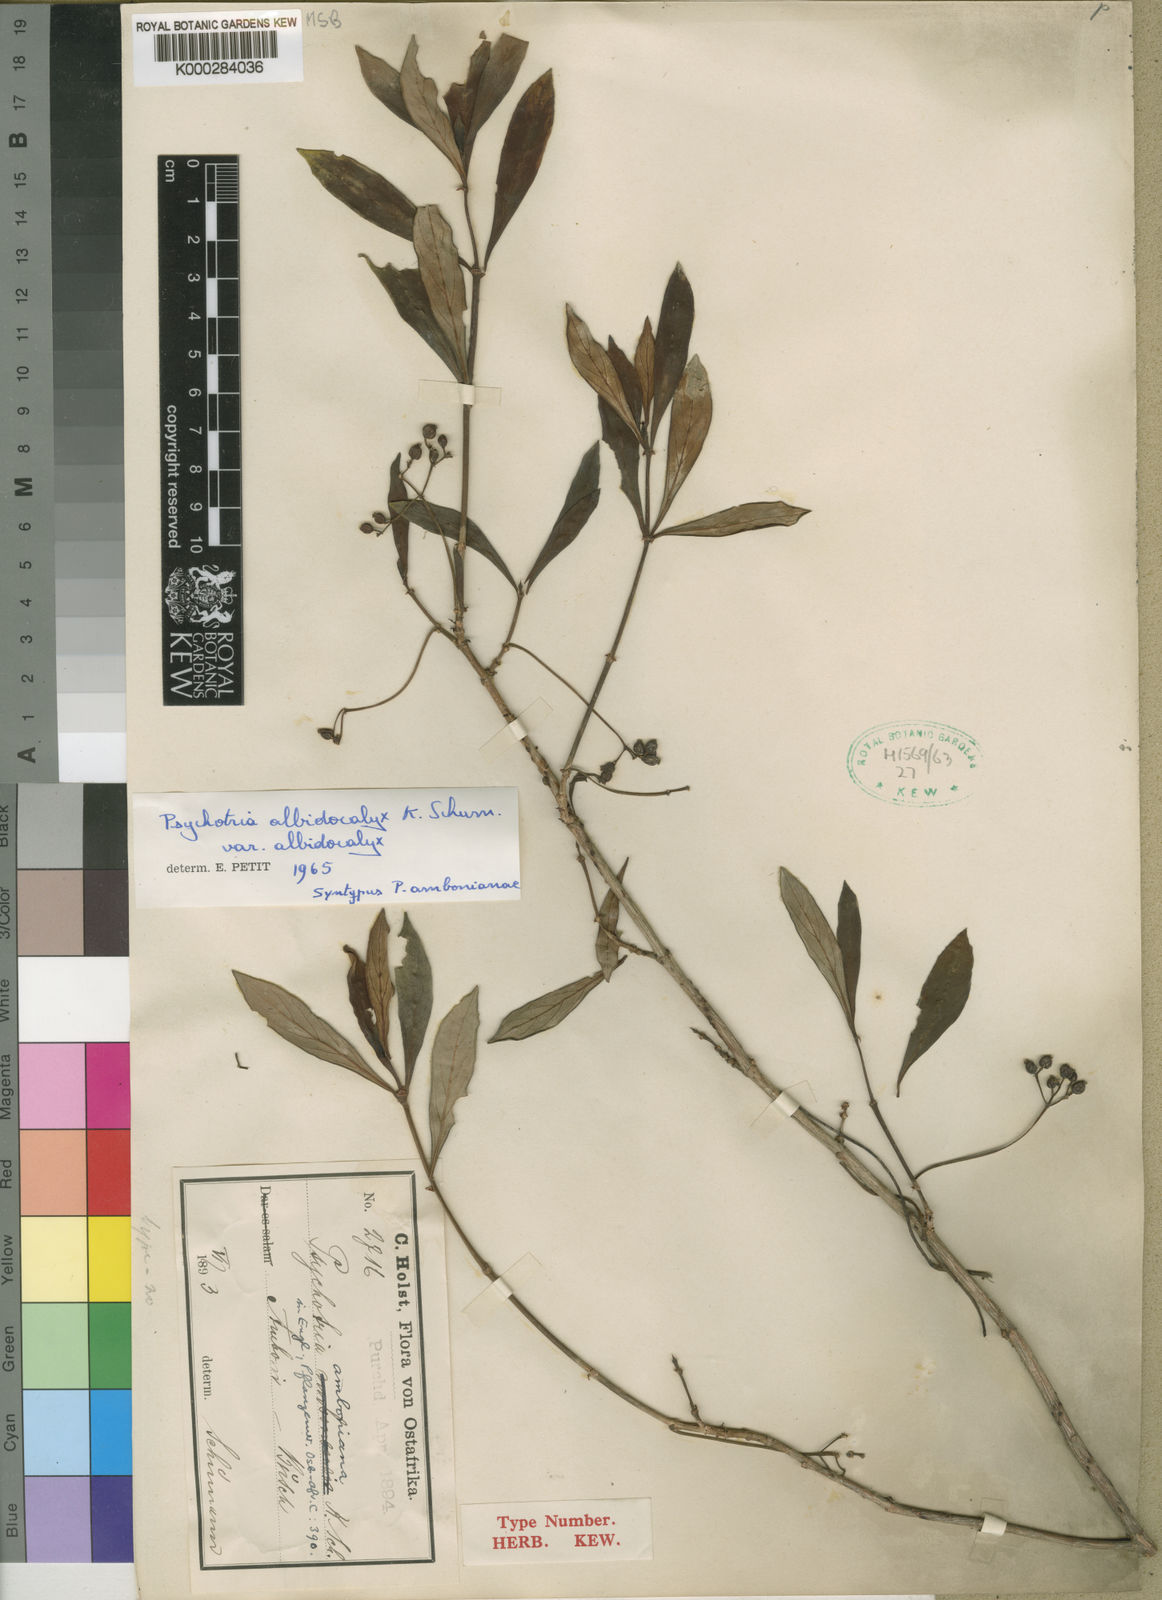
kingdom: Plantae
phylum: Tracheophyta
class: Magnoliopsida
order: Gentianales
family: Rubiaceae
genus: Psychotria
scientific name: Psychotria amboniana
